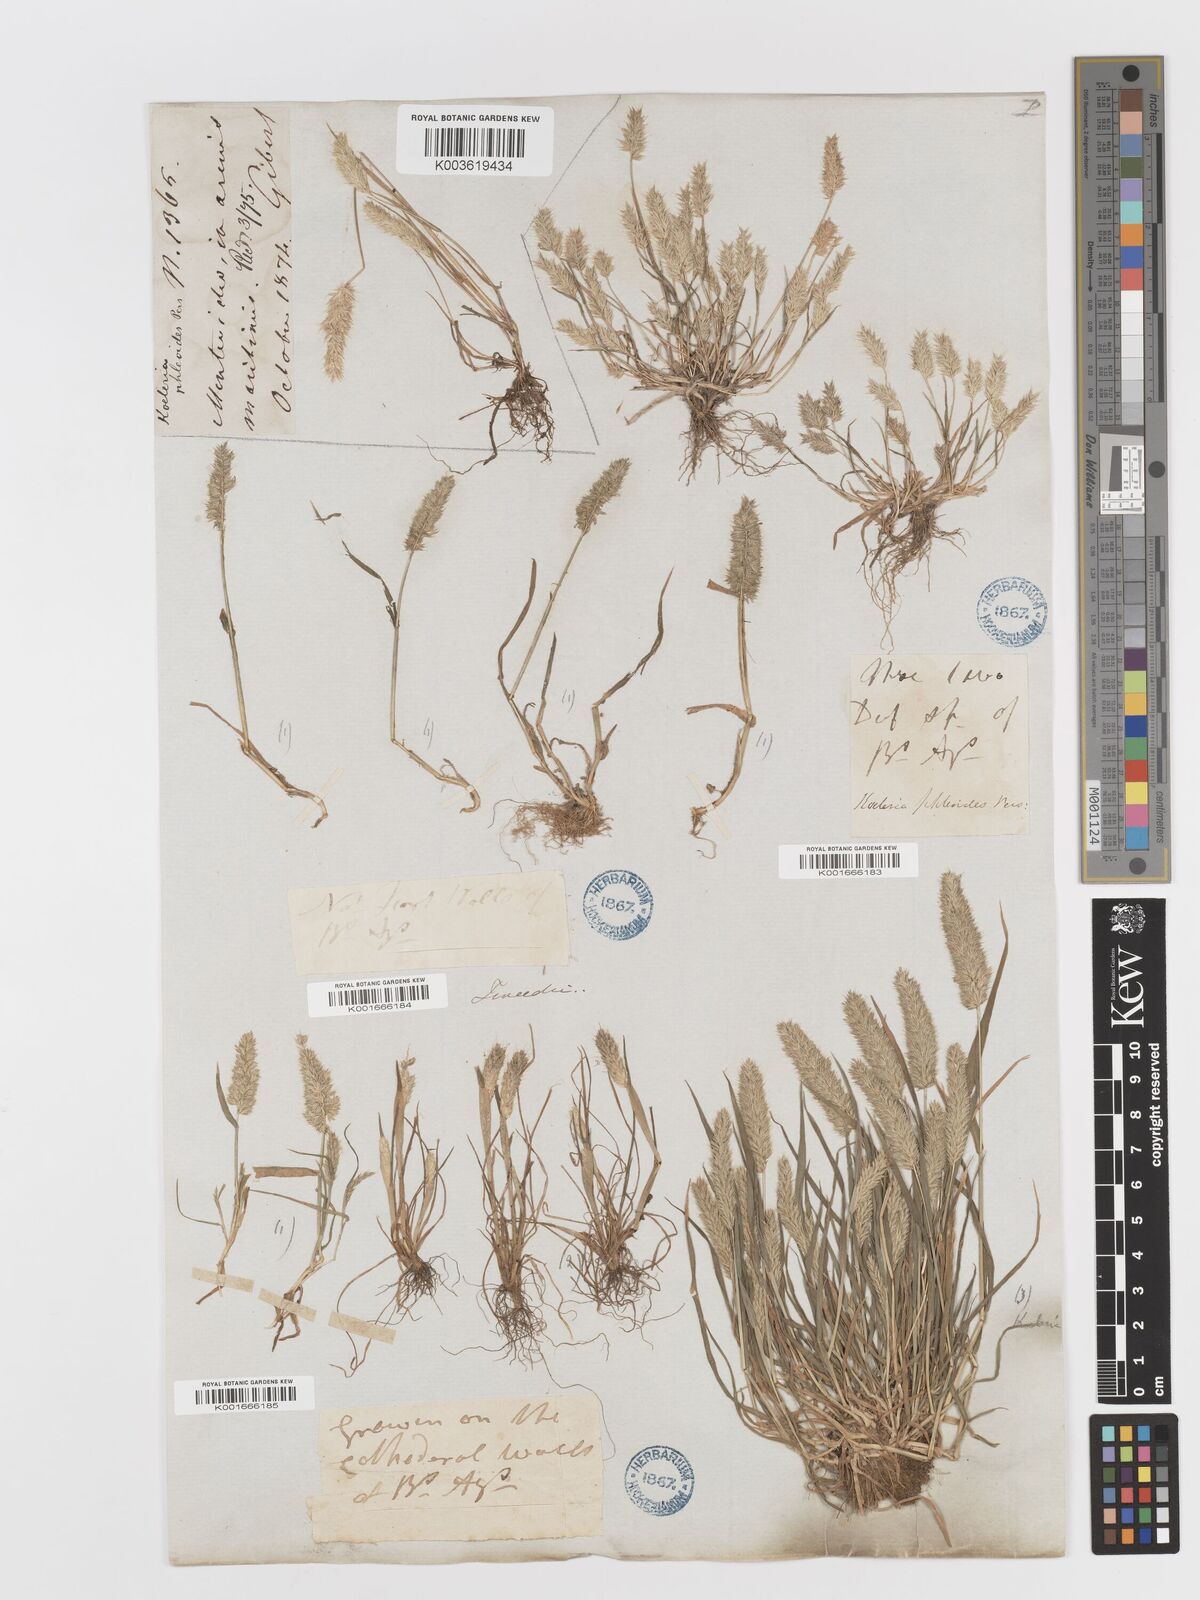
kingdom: Plantae
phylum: Tracheophyta
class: Liliopsida
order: Poales
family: Poaceae
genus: Rostraria
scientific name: Rostraria cristata
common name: Mediterranean hair-grass
